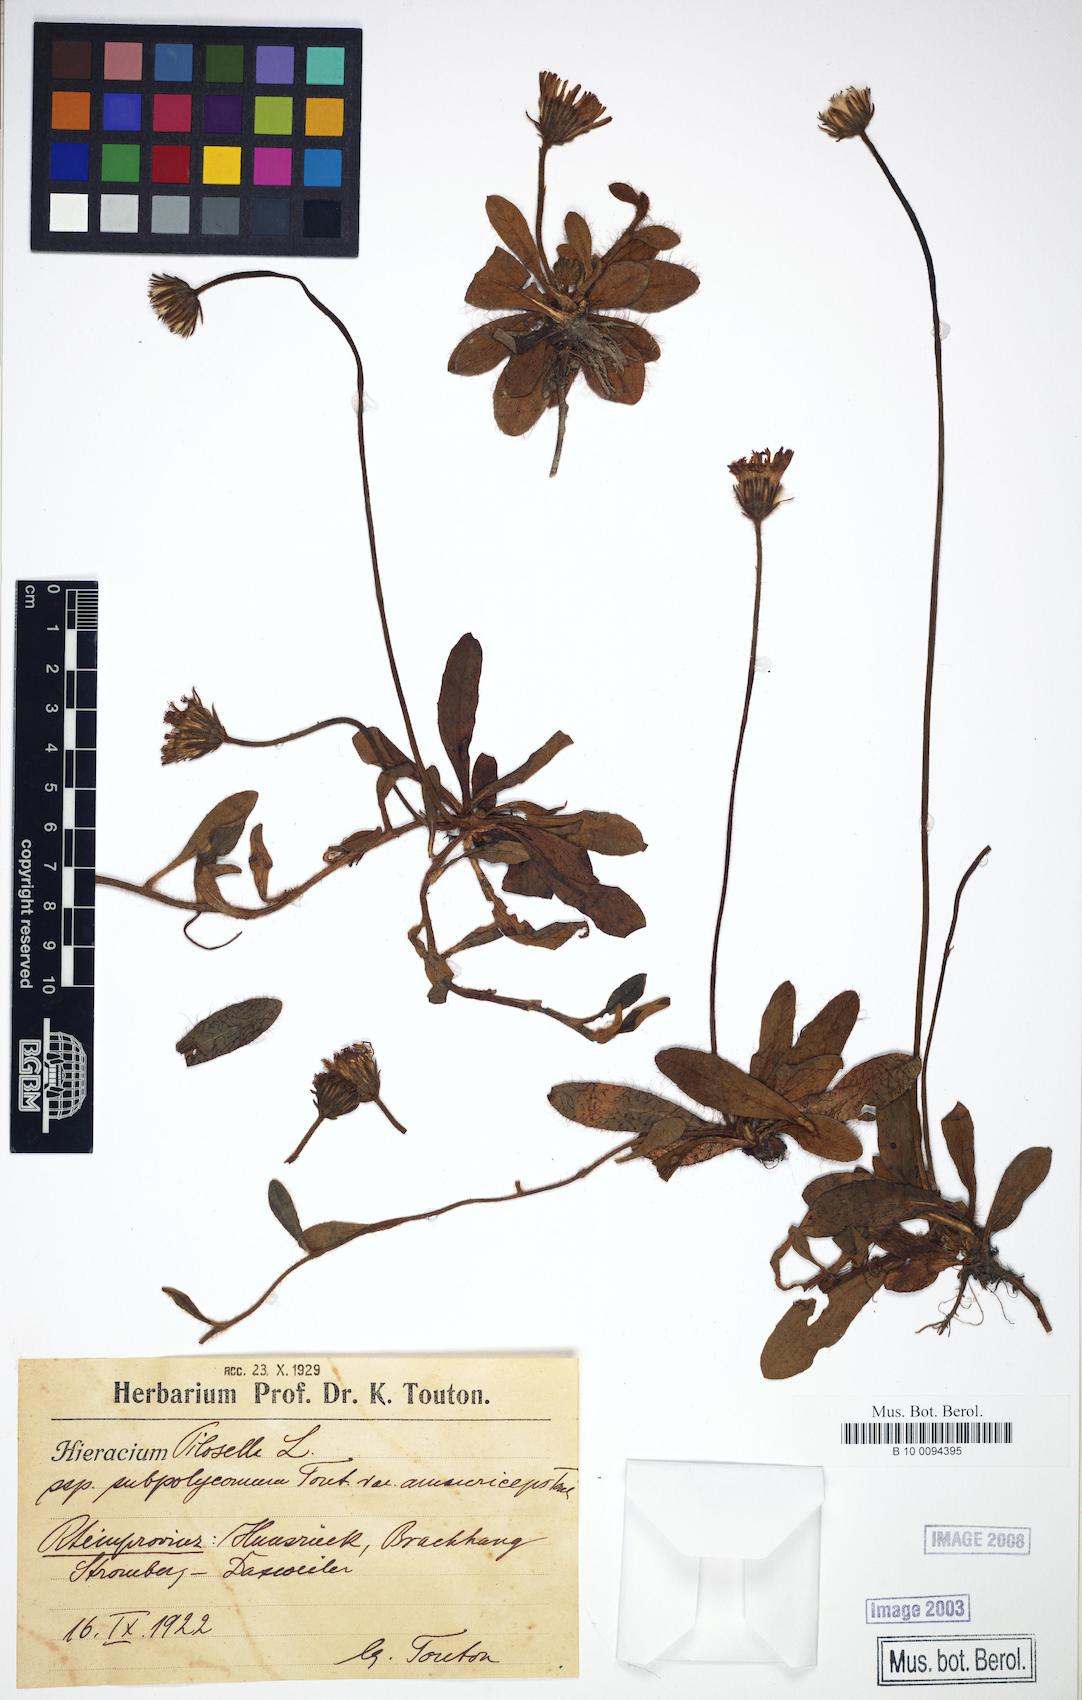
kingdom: Plantae
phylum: Tracheophyta
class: Magnoliopsida
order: Asterales
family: Asteraceae
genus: Pilosella
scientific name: Pilosella officinarum
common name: Mouse-ear hawkweed
